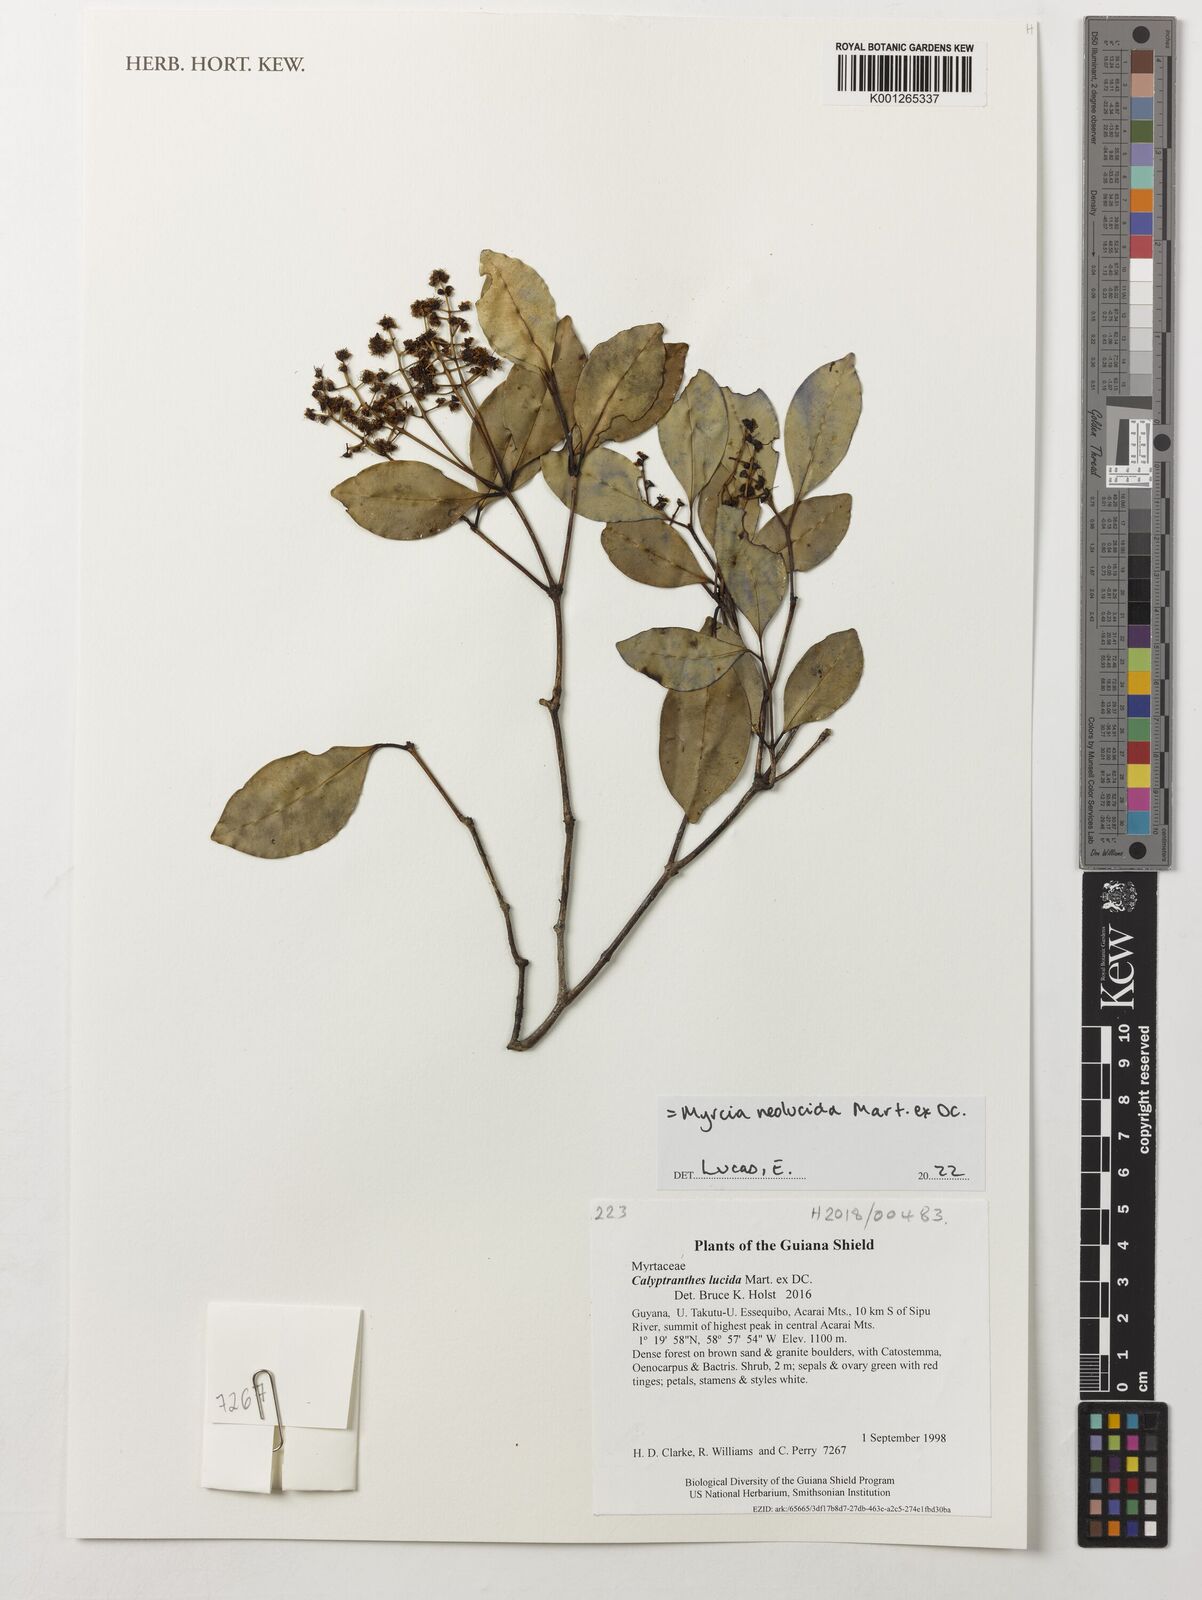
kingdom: Plantae
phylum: Tracheophyta
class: Magnoliopsida
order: Myrtales
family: Myrtaceae
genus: Myrcia
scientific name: Myrcia neolucida
